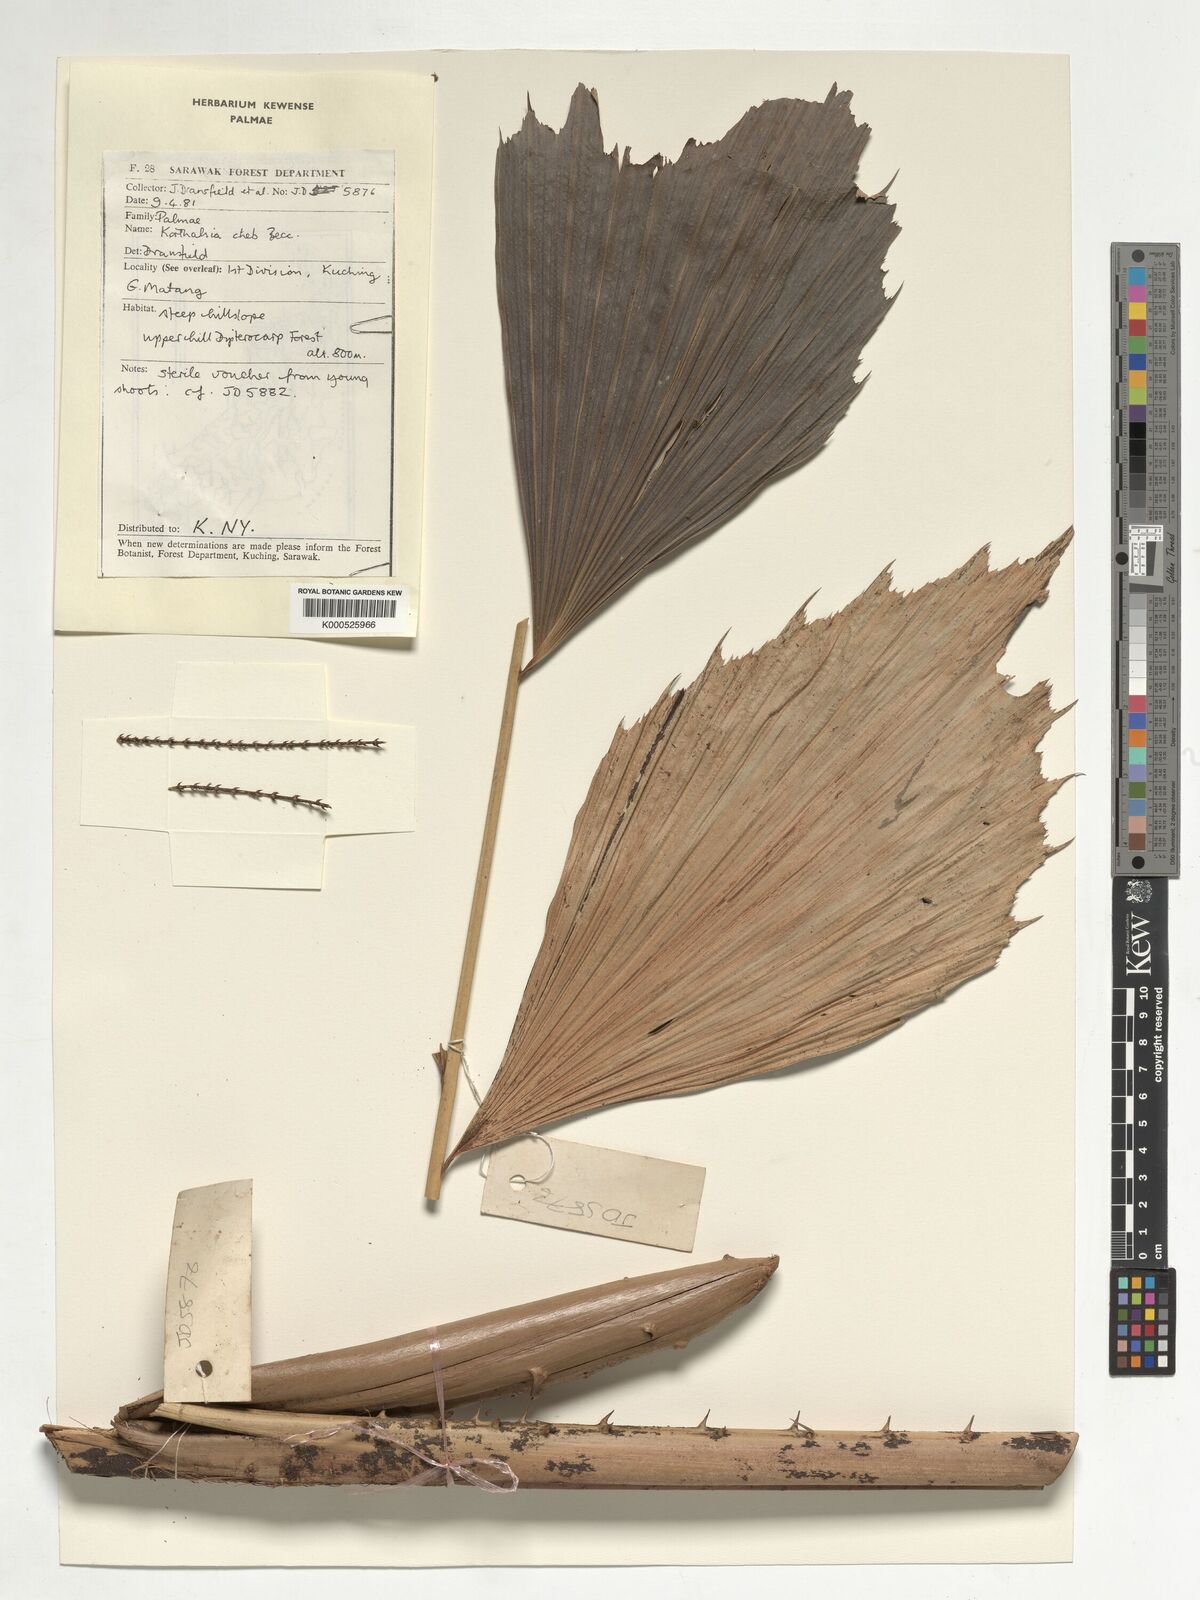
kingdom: Plantae
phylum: Tracheophyta
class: Liliopsida
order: Arecales
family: Arecaceae
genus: Korthalsia
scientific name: Korthalsia cheb
